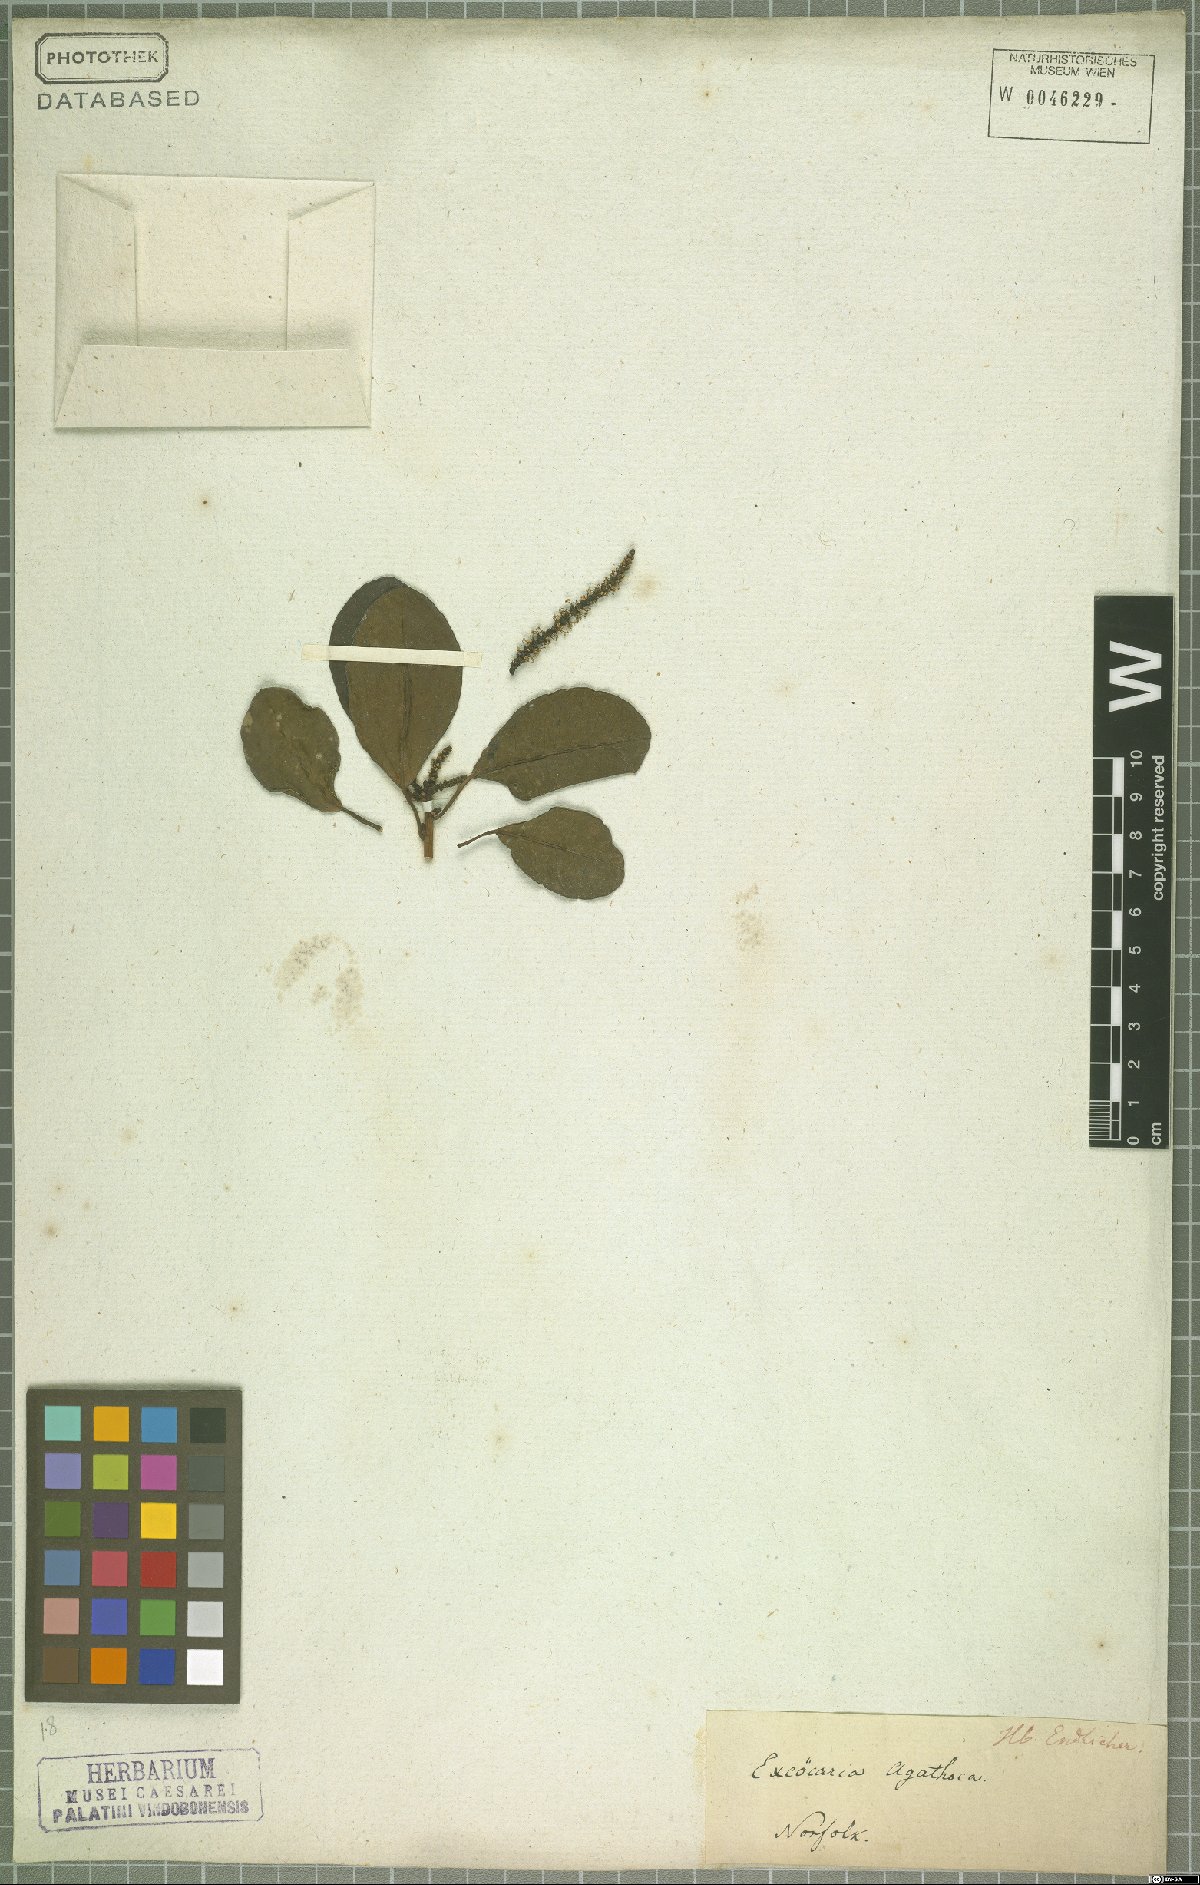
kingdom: Plantae
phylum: Tracheophyta
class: Magnoliopsida
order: Malpighiales
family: Euphorbiaceae
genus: Excoecaria
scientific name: Excoecaria agallocha
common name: River poisontree
